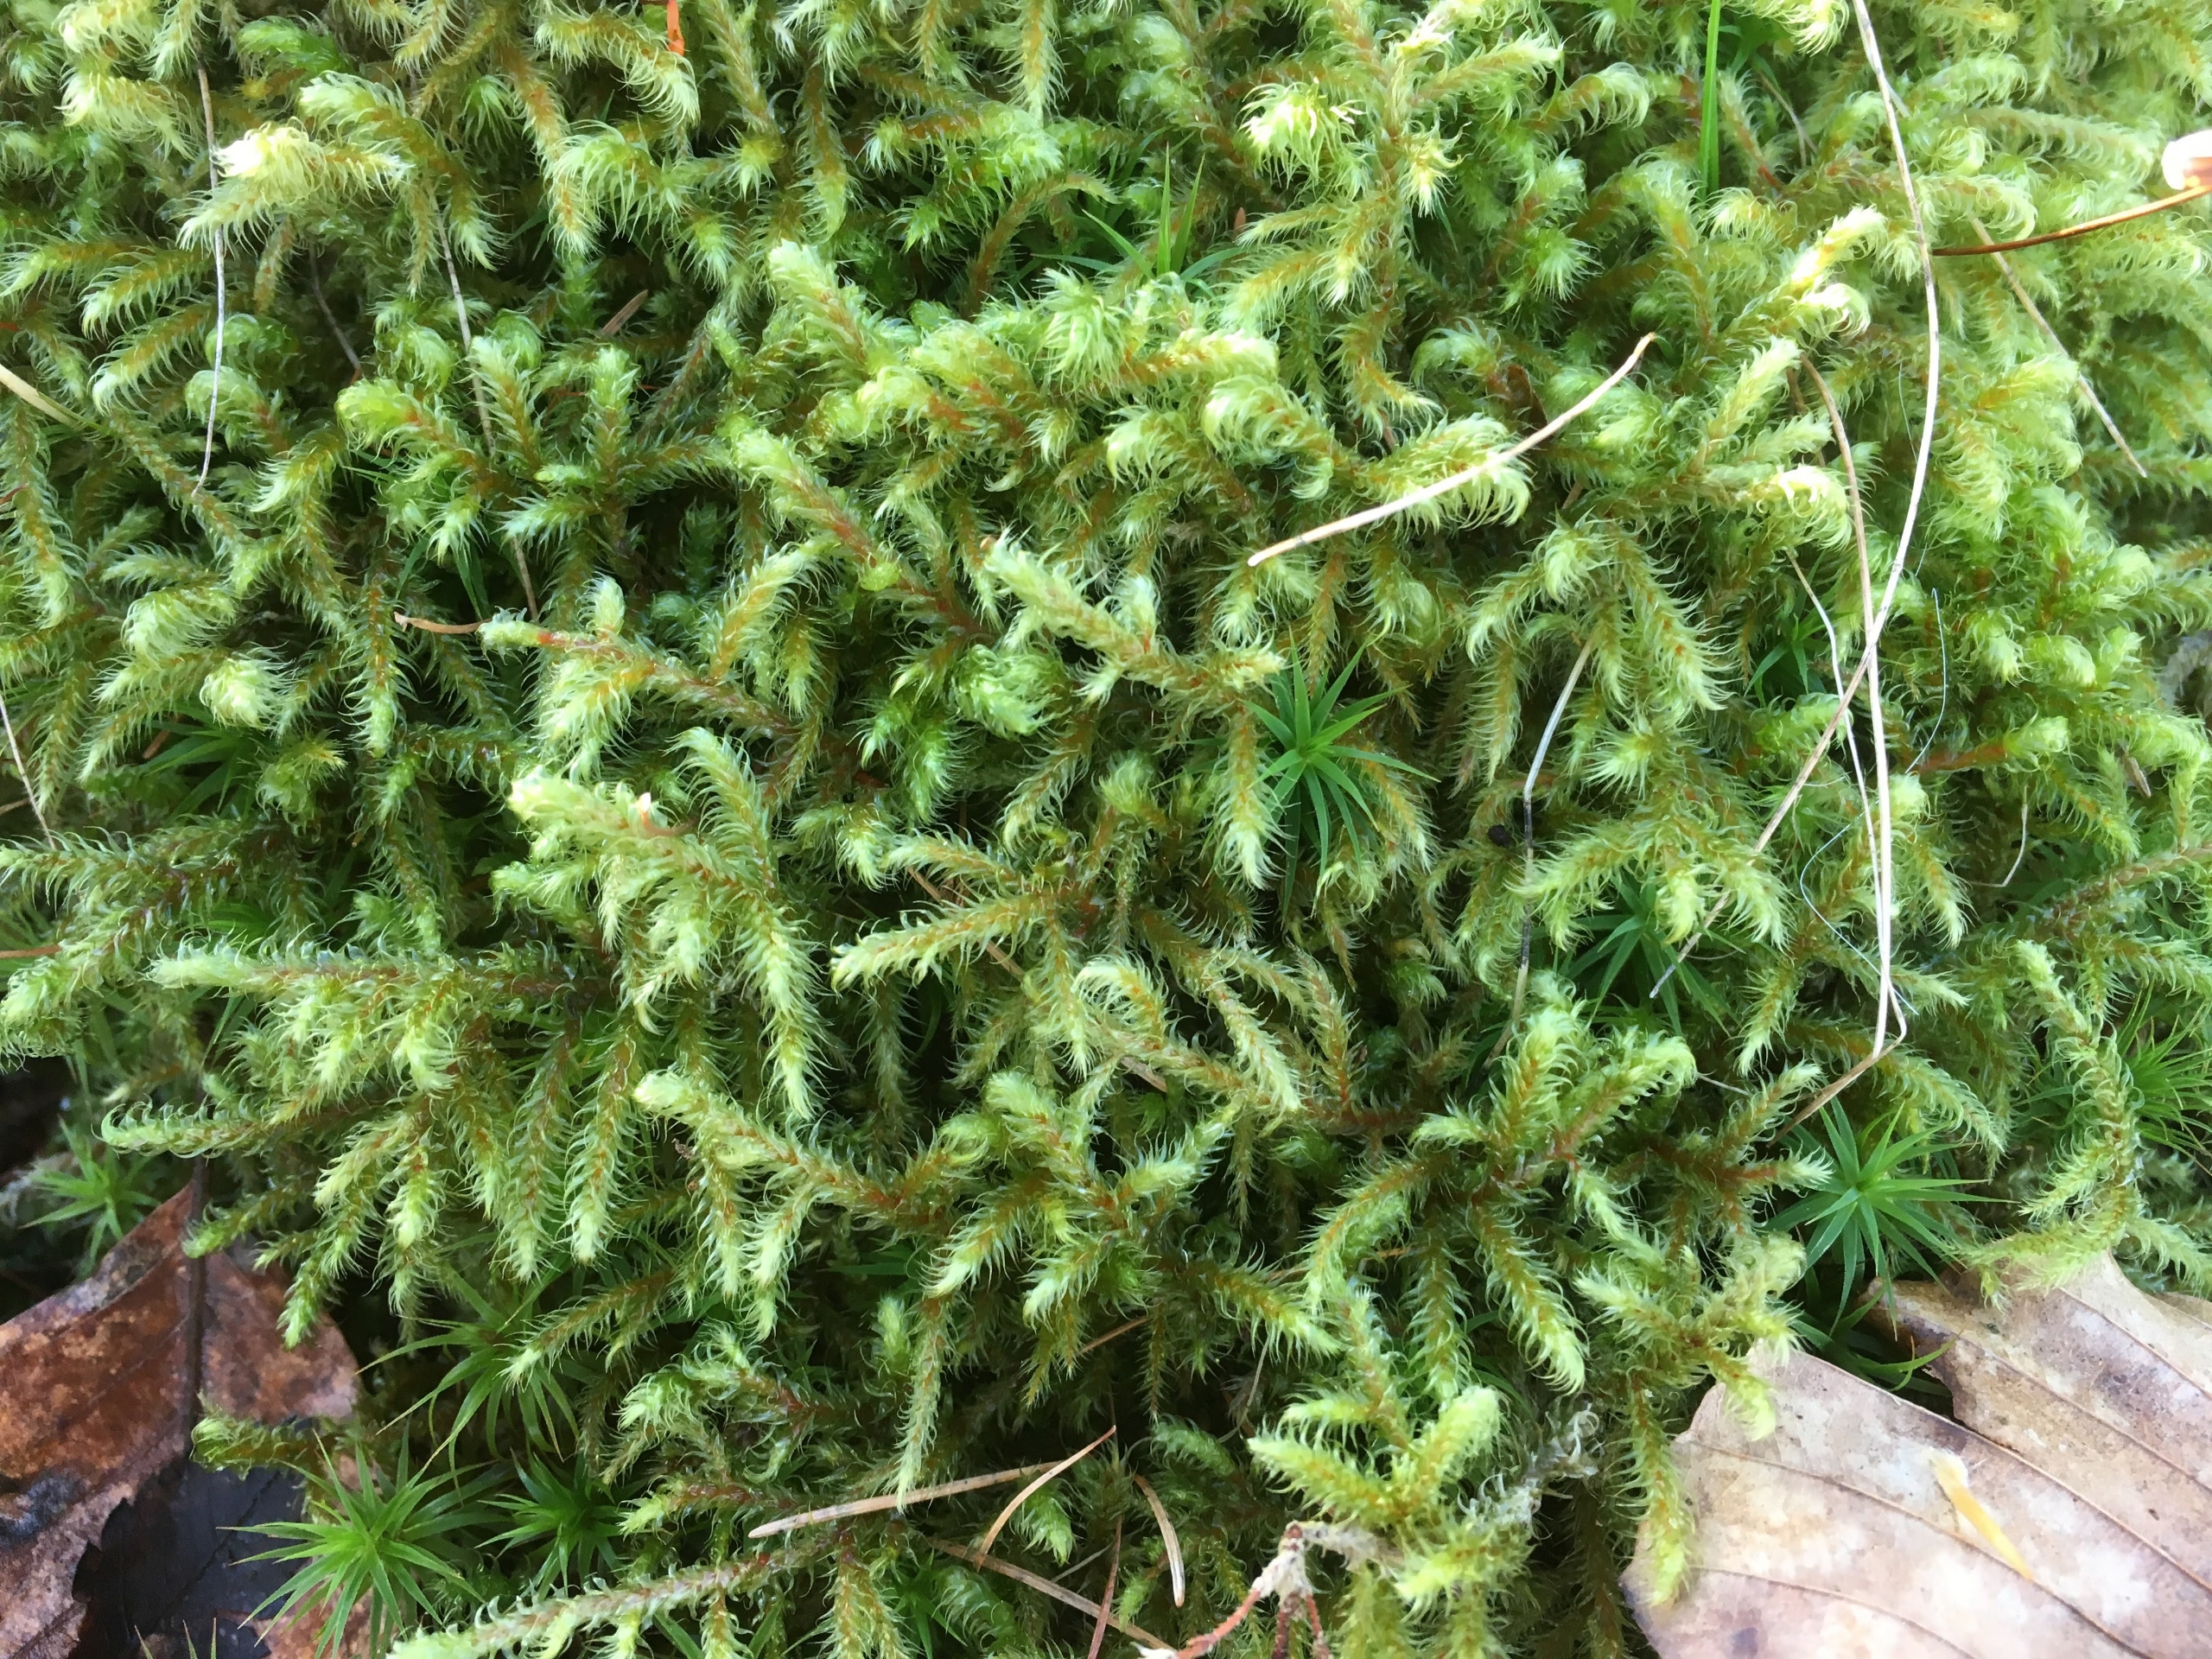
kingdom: Plantae
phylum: Bryophyta
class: Bryopsida
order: Hypnales
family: Hylocomiaceae
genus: Rhytidiadelphus
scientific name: Rhytidiadelphus loreus
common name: Ulvefod-kransemos
